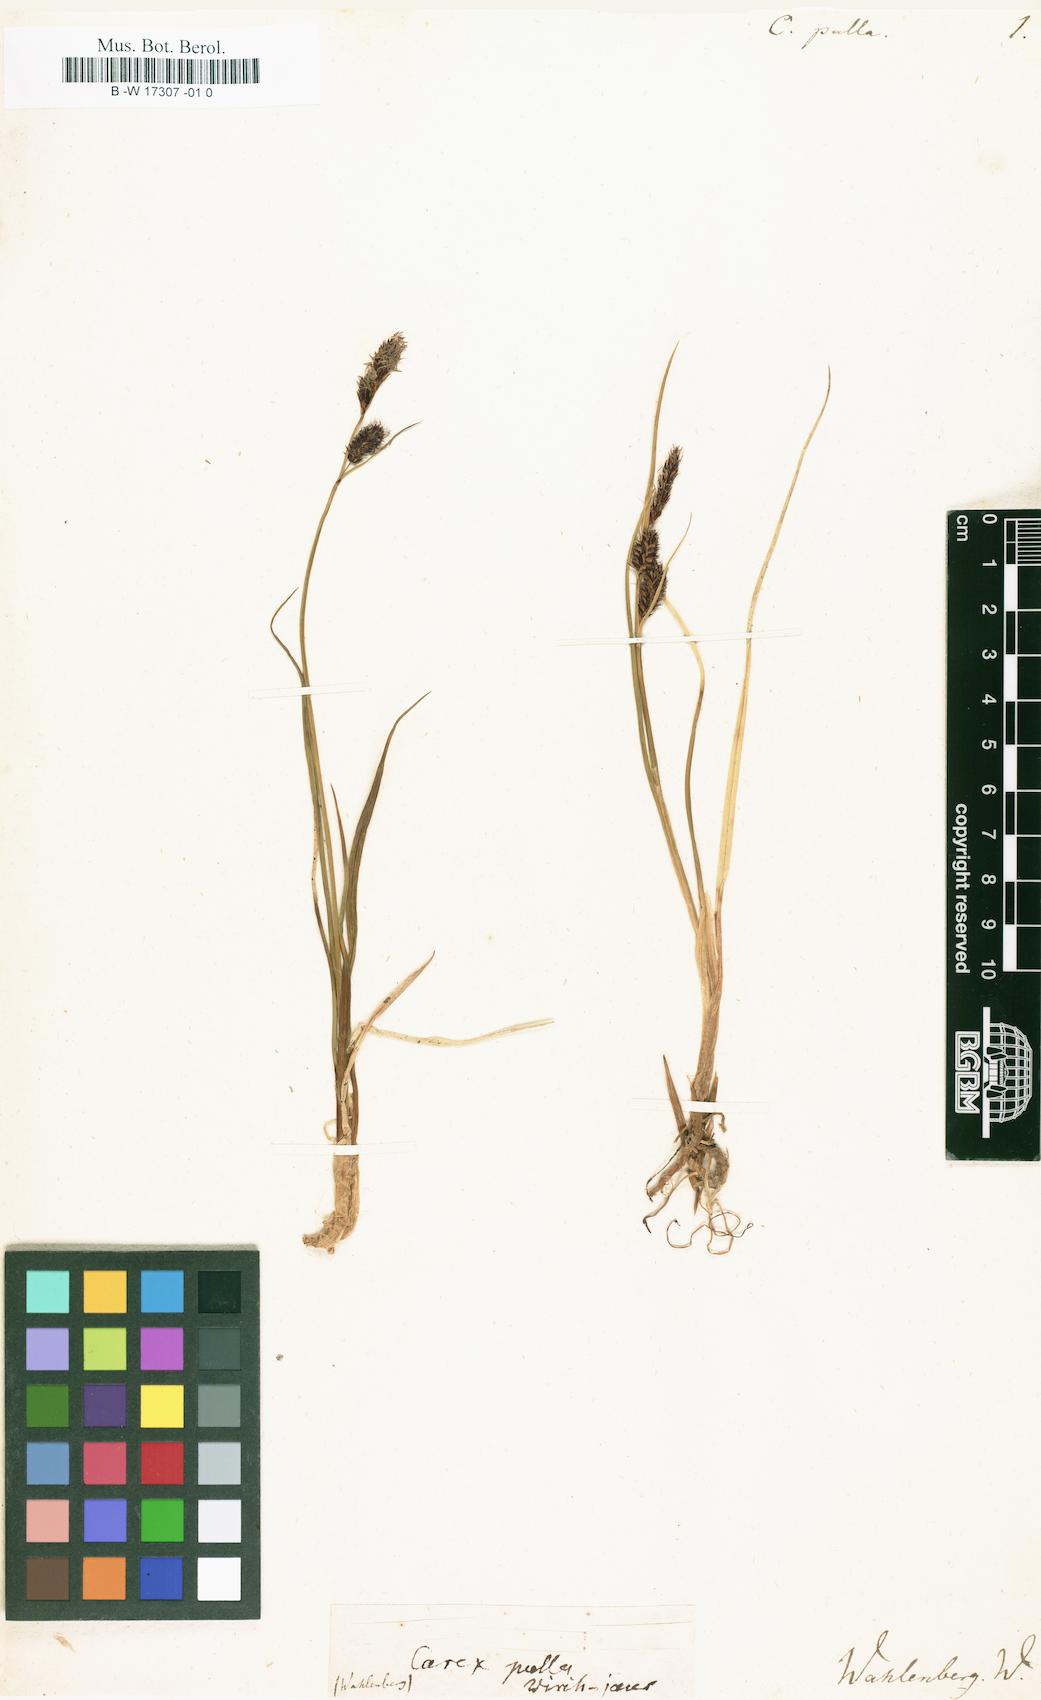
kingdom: Plantae
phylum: Tracheophyta
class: Liliopsida
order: Poales
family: Cyperaceae
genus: Carex
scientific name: Carex saxatilis
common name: Russet sedge
